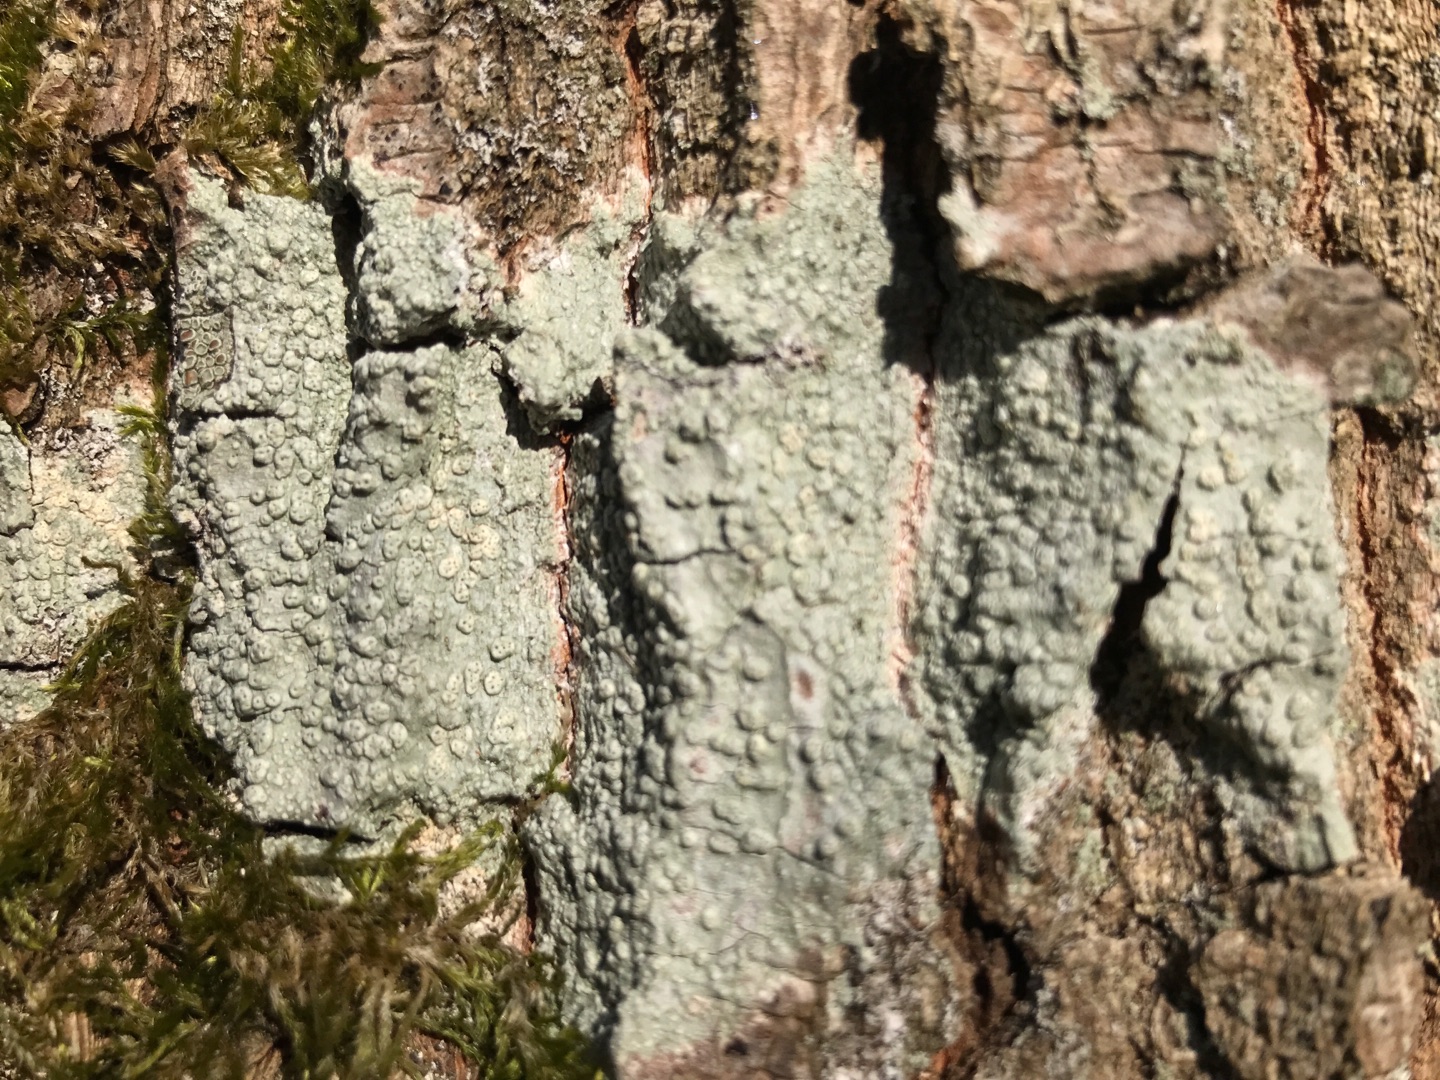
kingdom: Fungi
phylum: Ascomycota
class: Lecanoromycetes
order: Pertusariales
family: Pertusariaceae
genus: Pertusaria
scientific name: Pertusaria pertusa
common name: Almindelig prikvortelav
